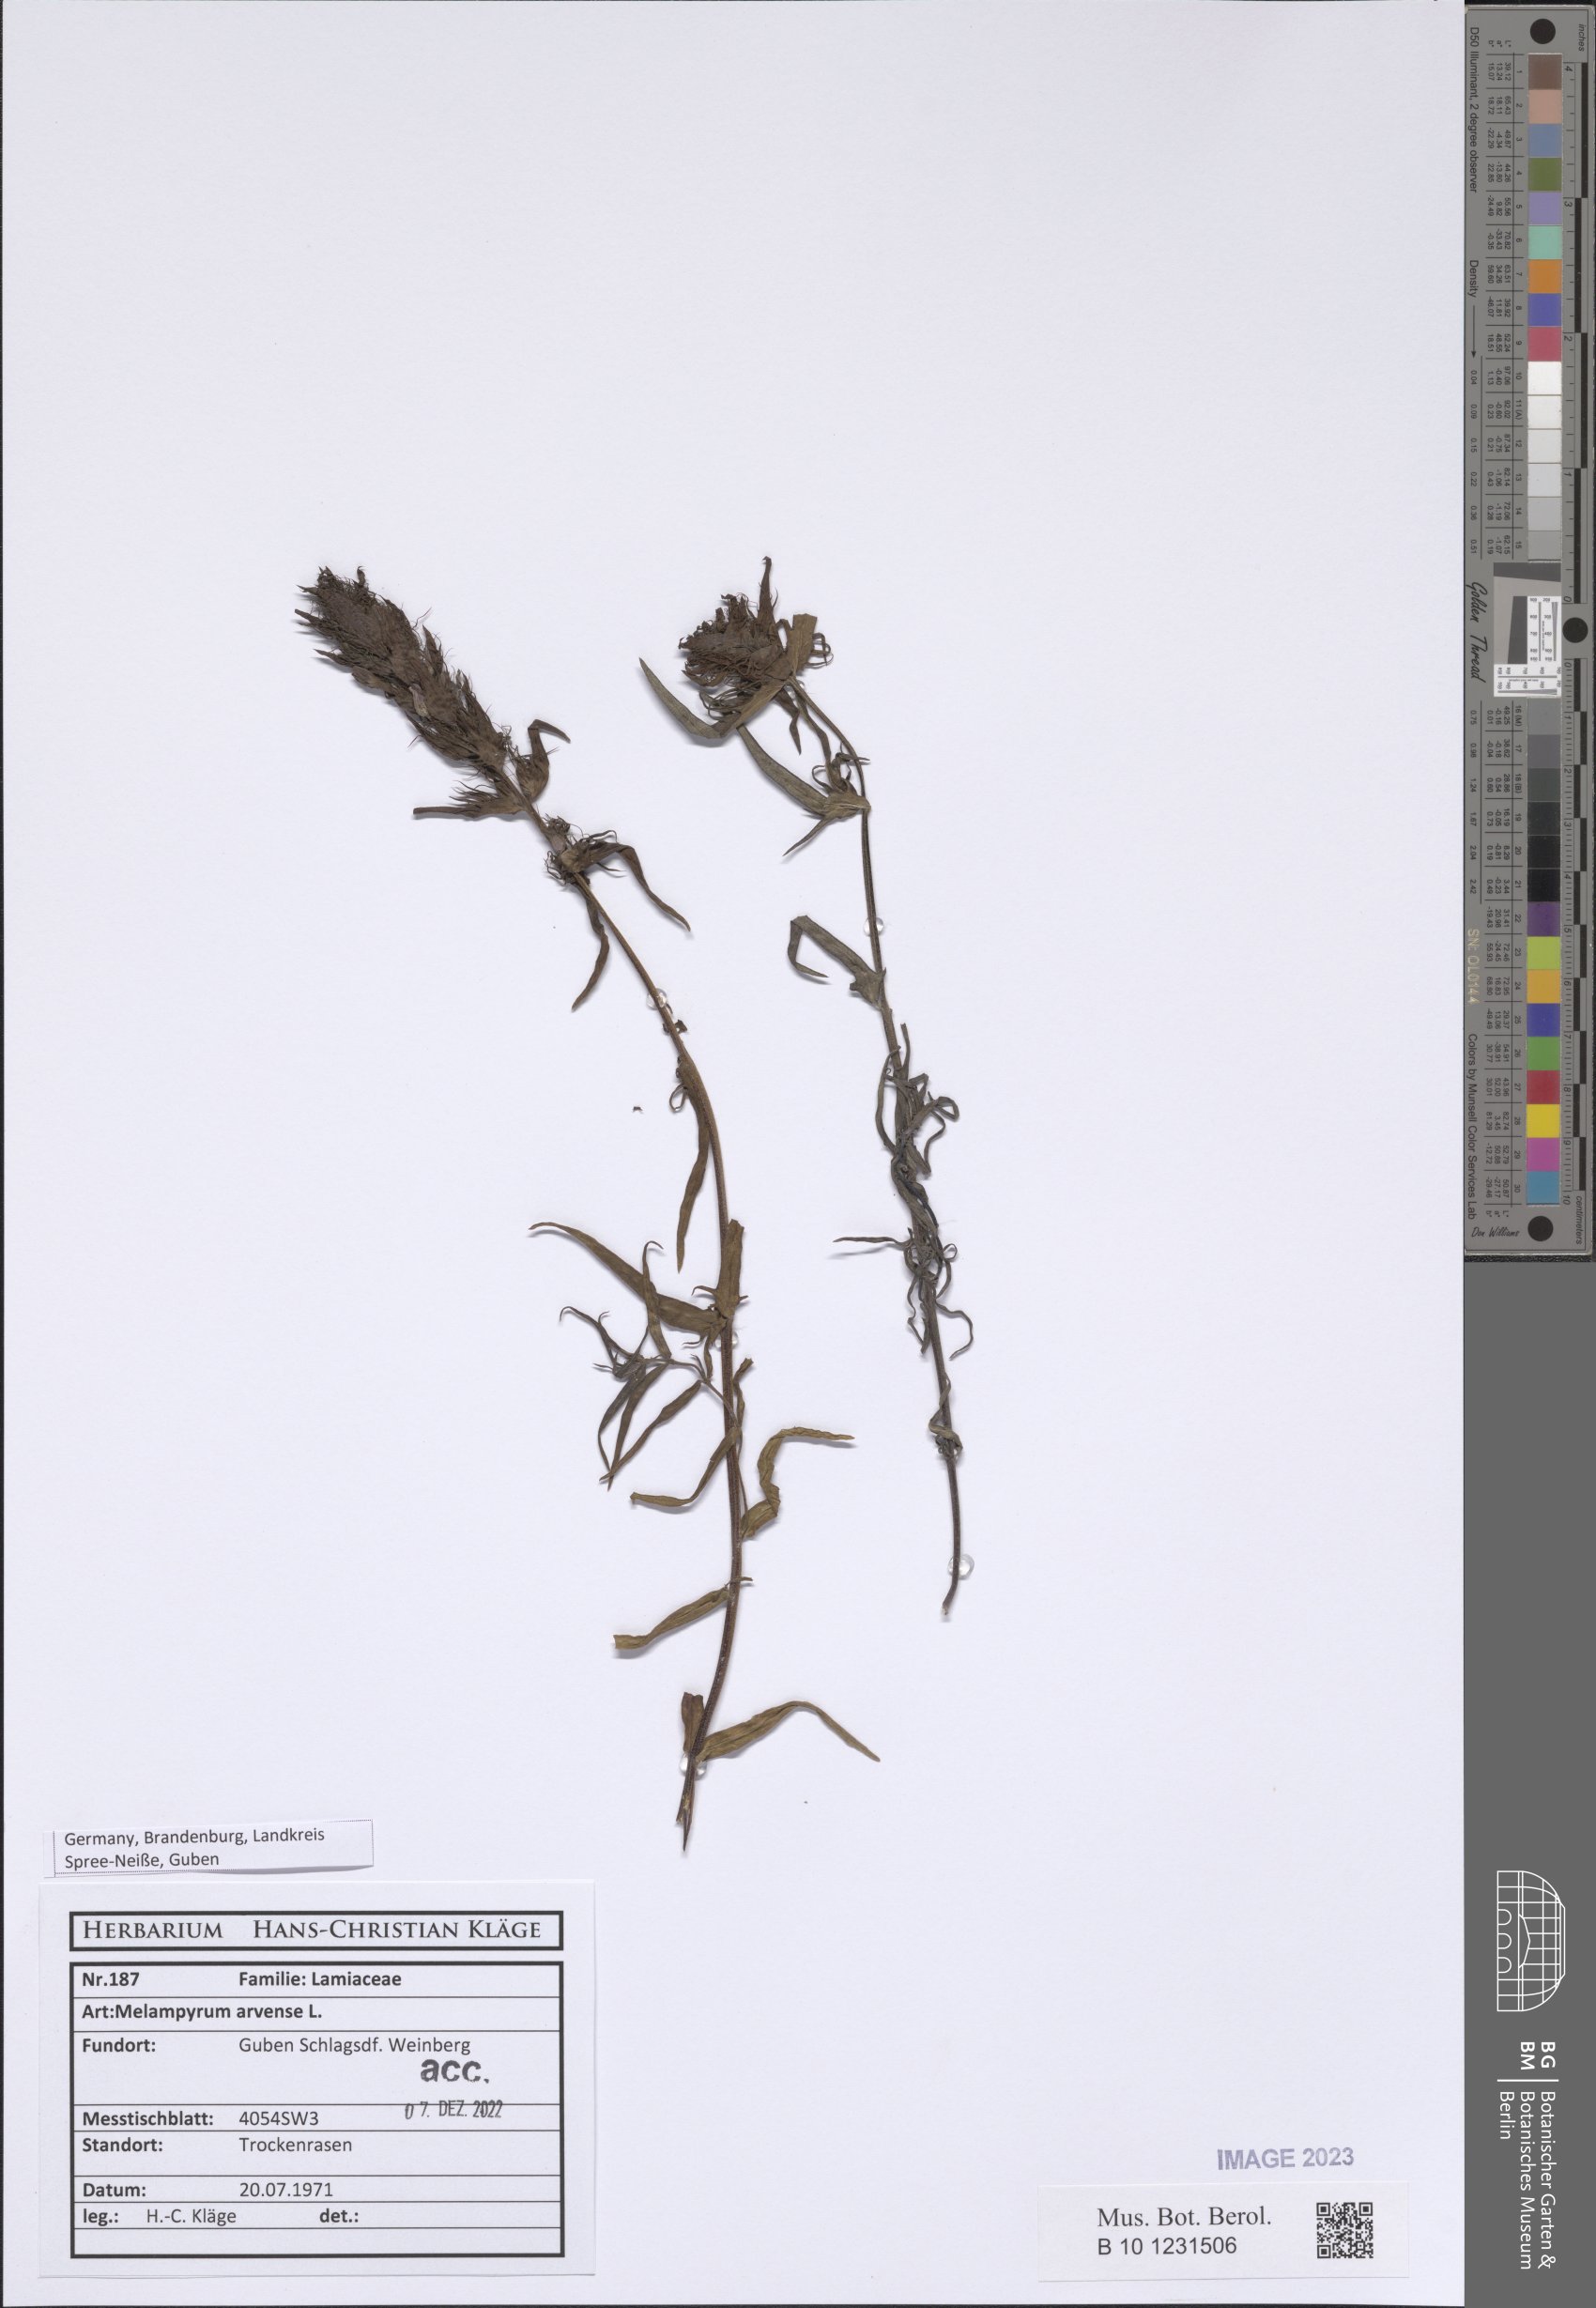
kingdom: Plantae
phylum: Tracheophyta
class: Magnoliopsida
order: Lamiales
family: Orobanchaceae
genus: Melampyrum
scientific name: Melampyrum arvense
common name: Field cow-wheat
